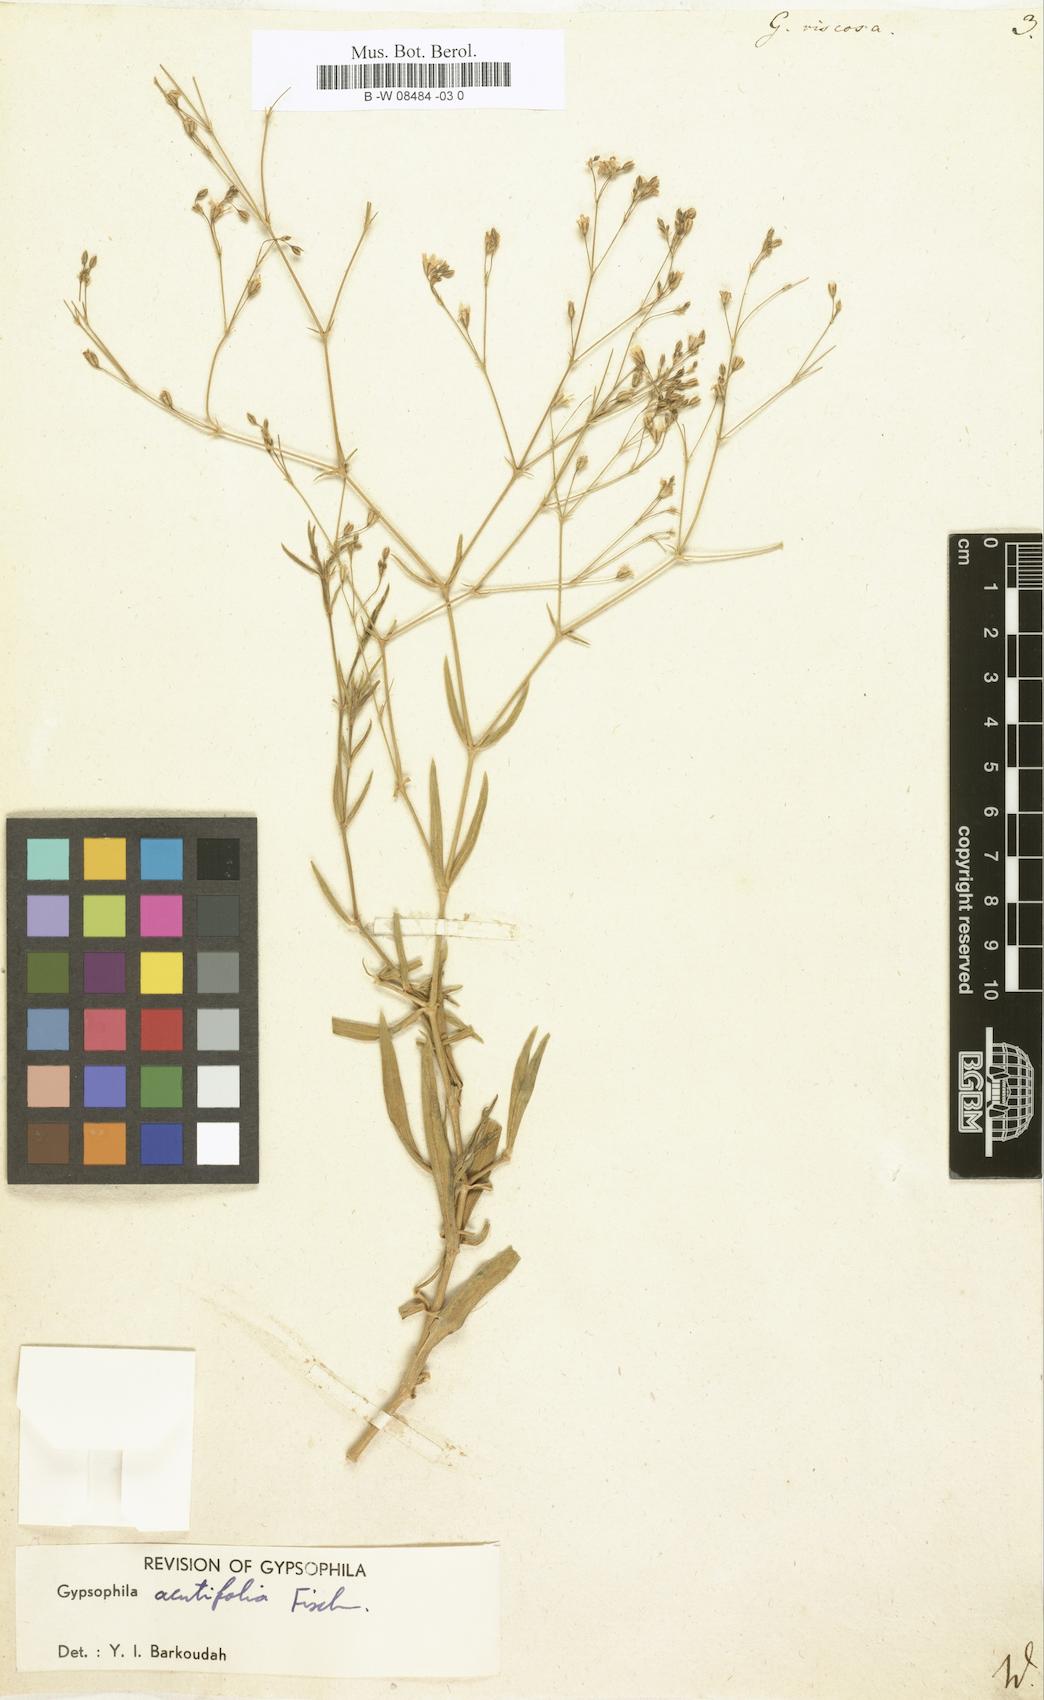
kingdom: Plantae
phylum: Tracheophyta
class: Magnoliopsida
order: Caryophyllales
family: Caryophyllaceae
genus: Gypsophila
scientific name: Gypsophila viscosa
